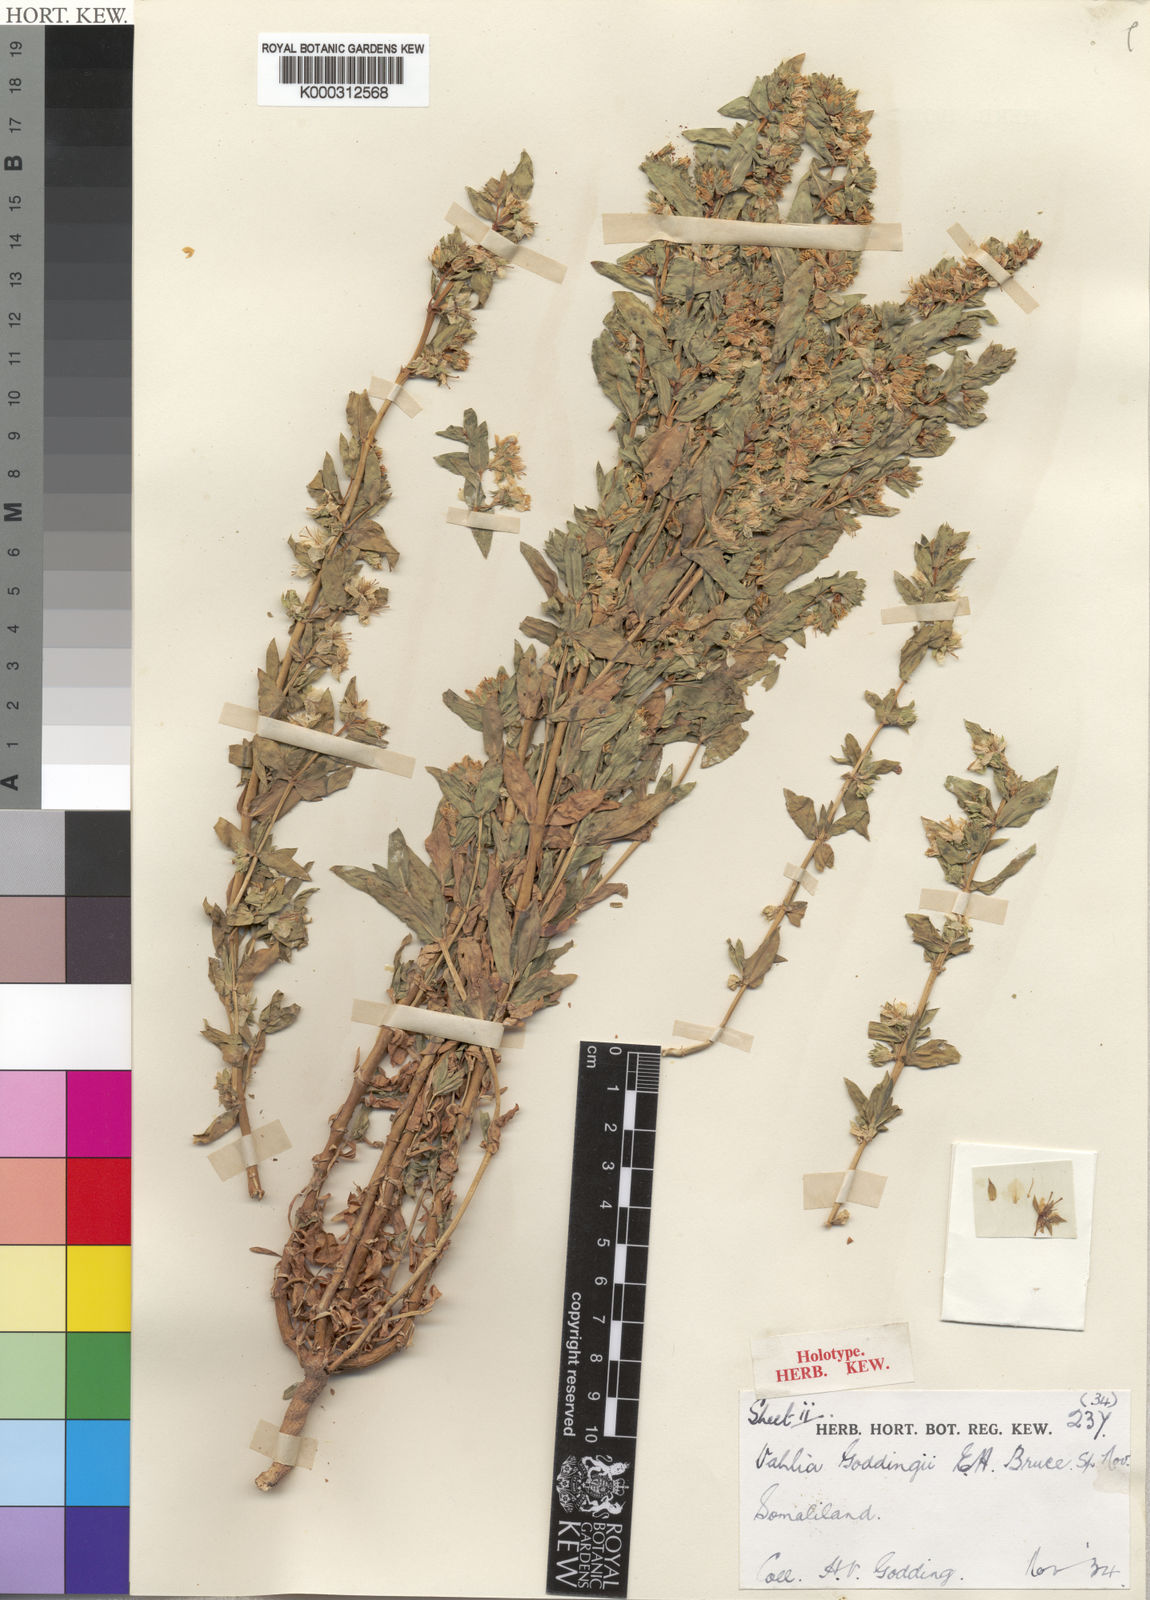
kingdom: Plantae
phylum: Tracheophyta
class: Magnoliopsida
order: Vahliales
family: Vahliaceae
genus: Vahlia
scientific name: Vahlia somalensis
